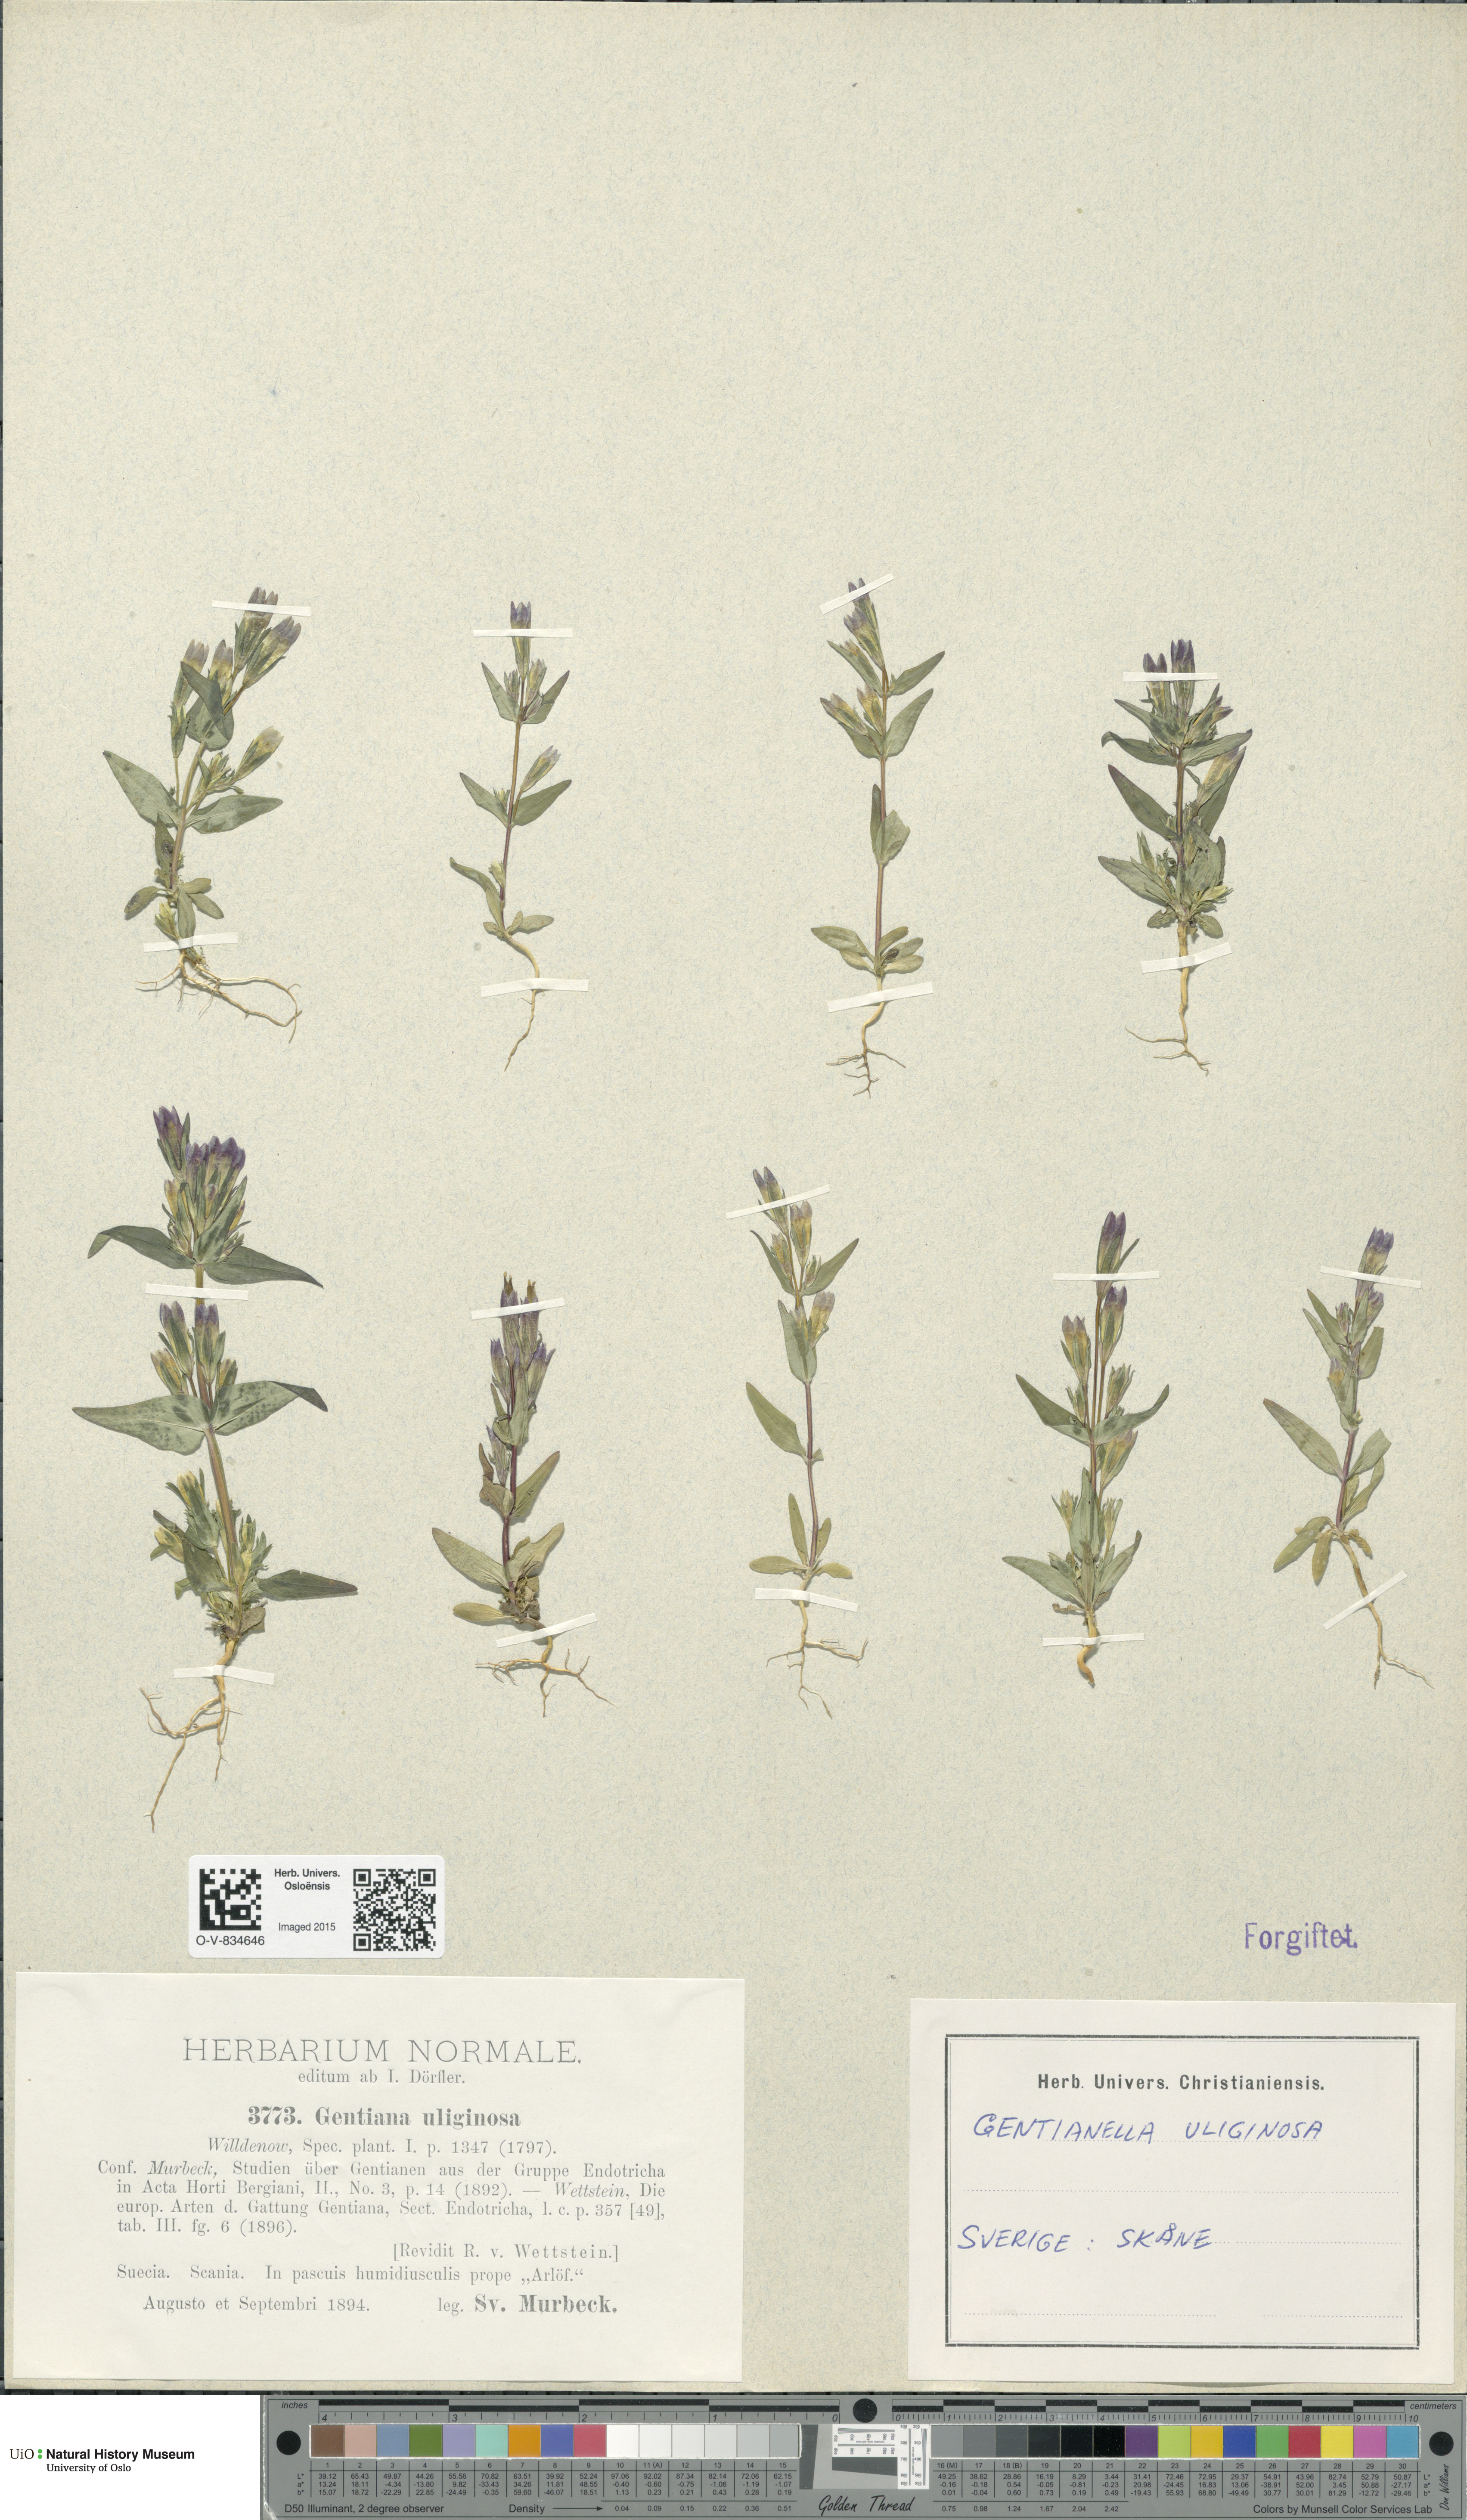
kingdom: Plantae
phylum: Tracheophyta
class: Magnoliopsida
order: Gentianales
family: Gentianaceae
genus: Gentianella
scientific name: Gentianella uliginosa
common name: Dune gentian
